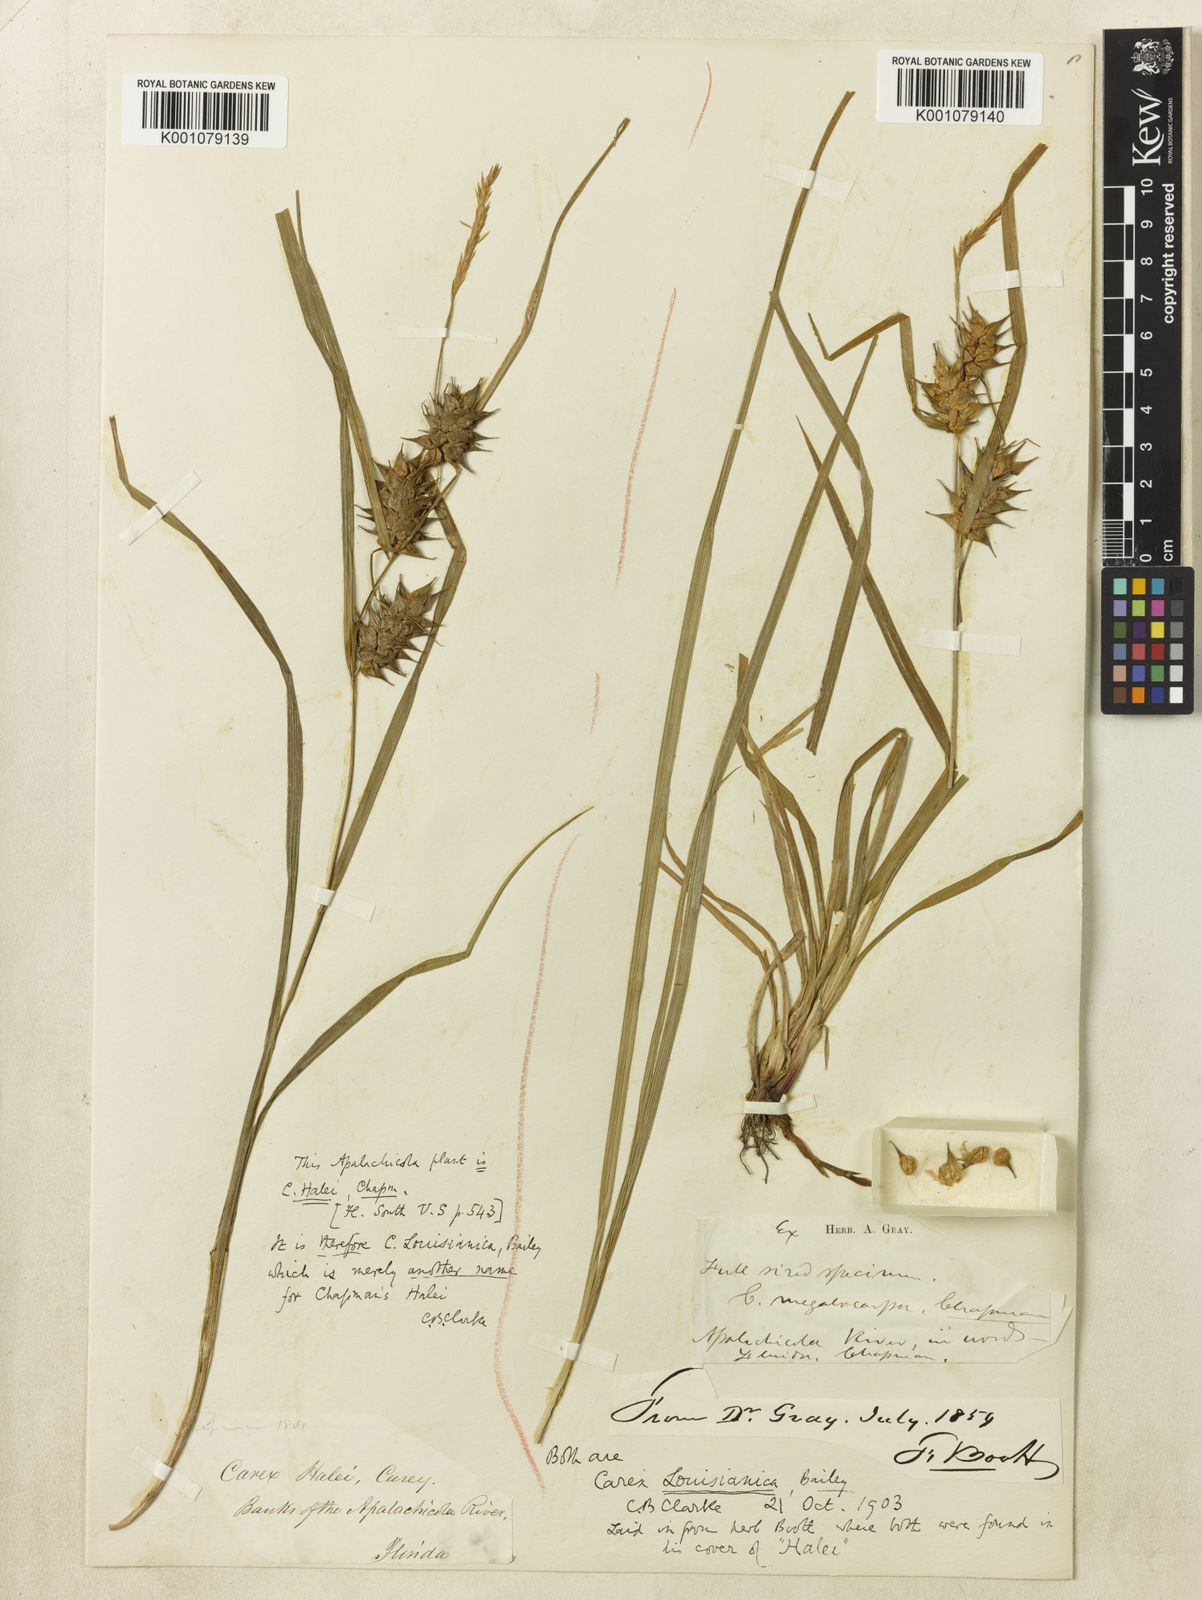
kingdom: Plantae
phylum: Tracheophyta
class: Liliopsida
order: Poales
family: Cyperaceae
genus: Carex
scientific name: Carex louisianica
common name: Louisiana sedge
